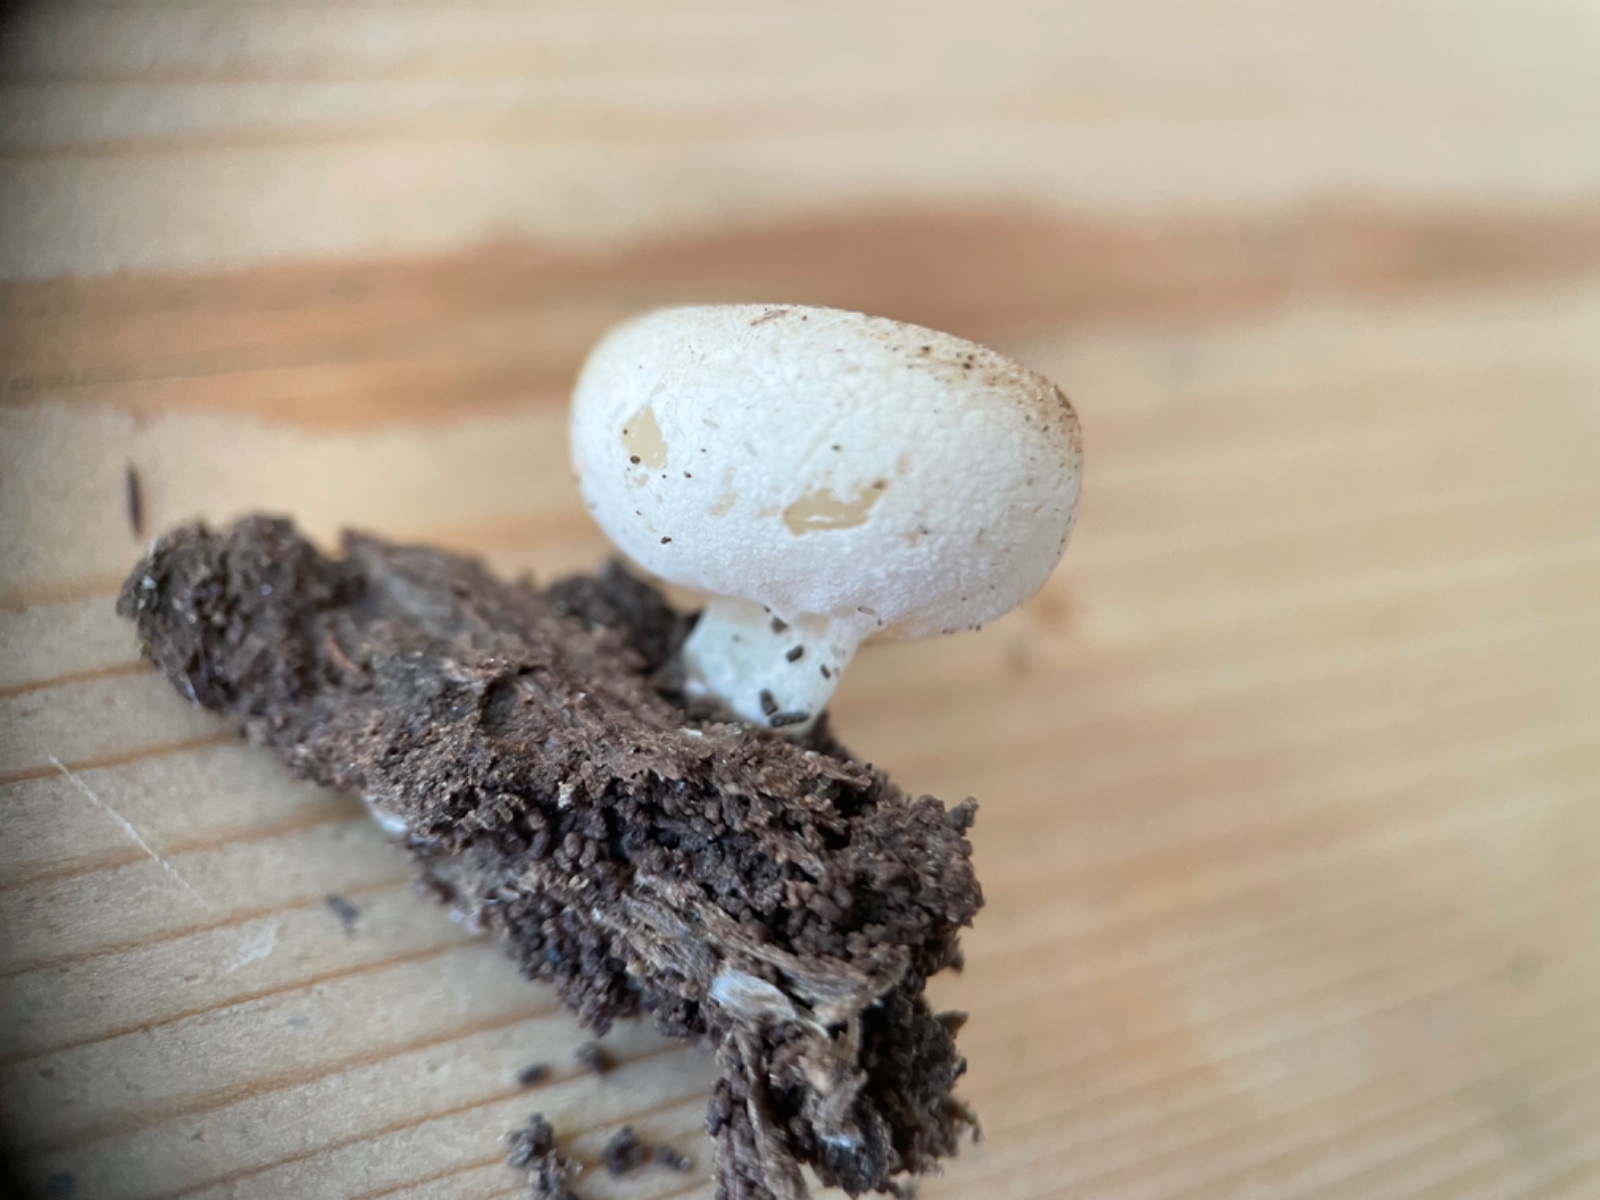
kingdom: Fungi
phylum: Ascomycota
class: Pezizomycetes
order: Pezizales
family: Pezizaceae
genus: Peziza
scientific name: Peziza varia
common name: Ved-bægersvamp
